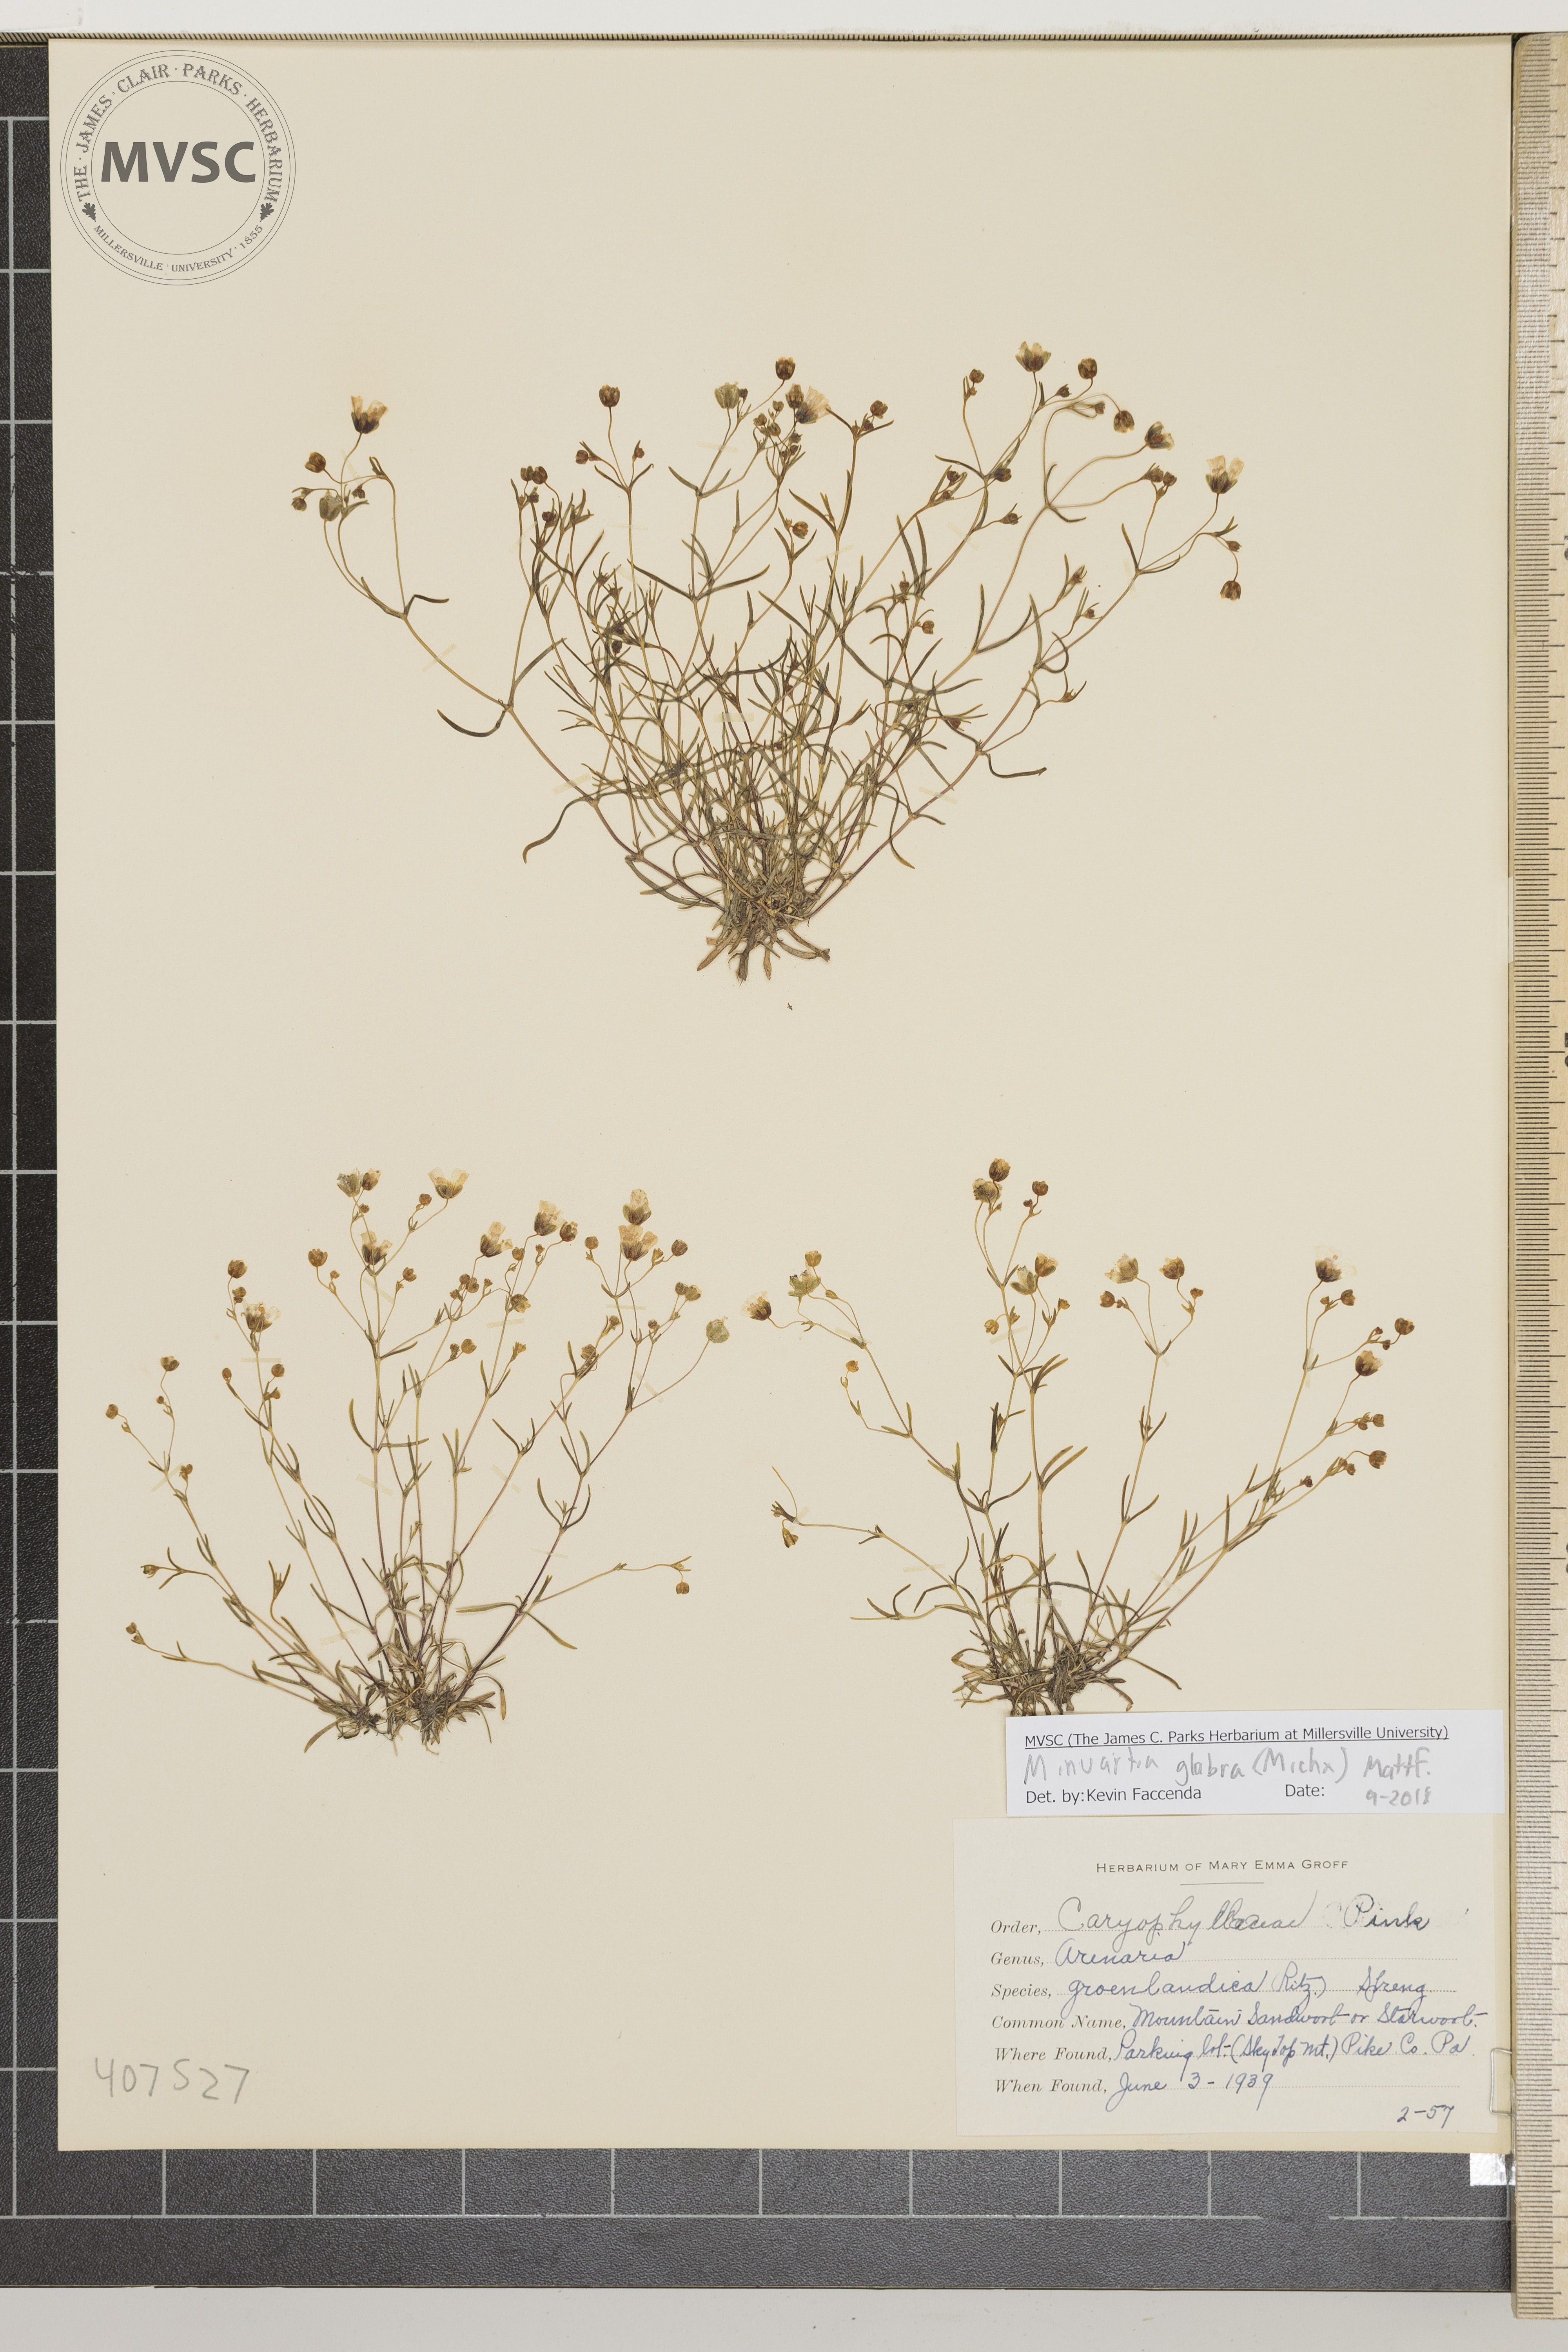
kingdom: Plantae
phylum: Tracheophyta
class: Magnoliopsida
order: Caryophyllales
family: Caryophyllaceae
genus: Sagina
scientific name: Sagina decumbens
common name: Decumbent pearlwort
